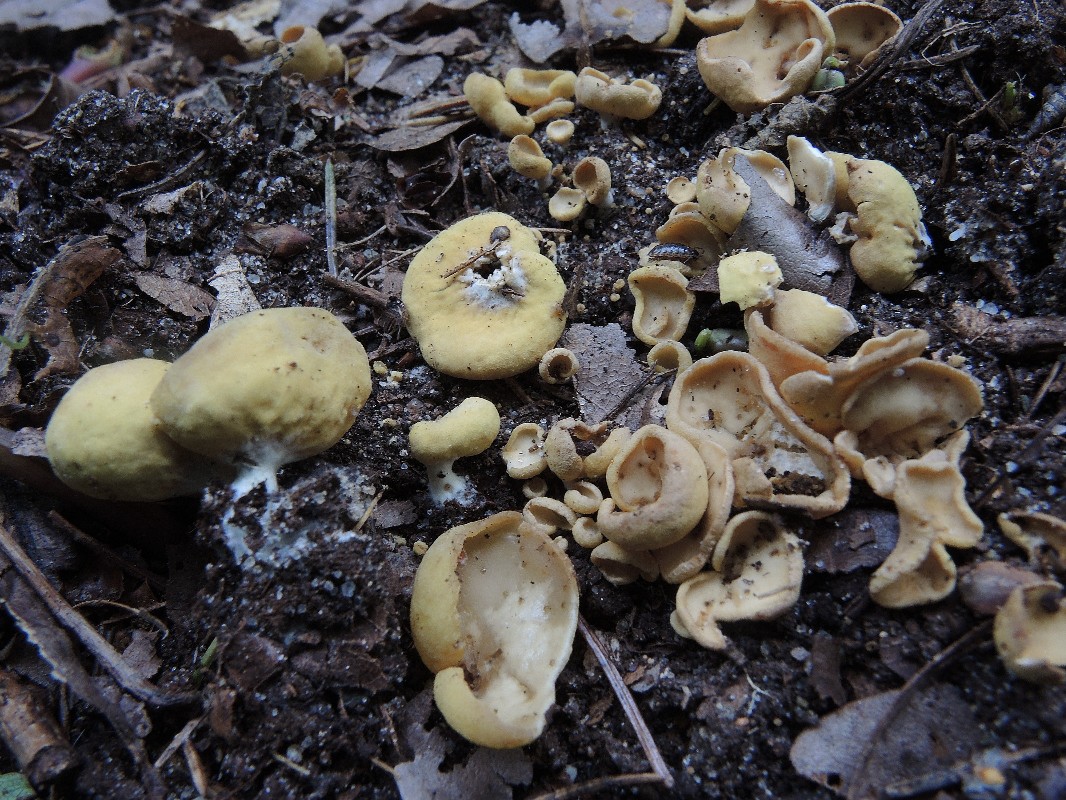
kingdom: Fungi
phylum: Ascomycota
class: Pezizomycetes
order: Pezizales
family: Otideaceae
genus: Otidea
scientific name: Otidea phlebophora
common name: året ørebæger
